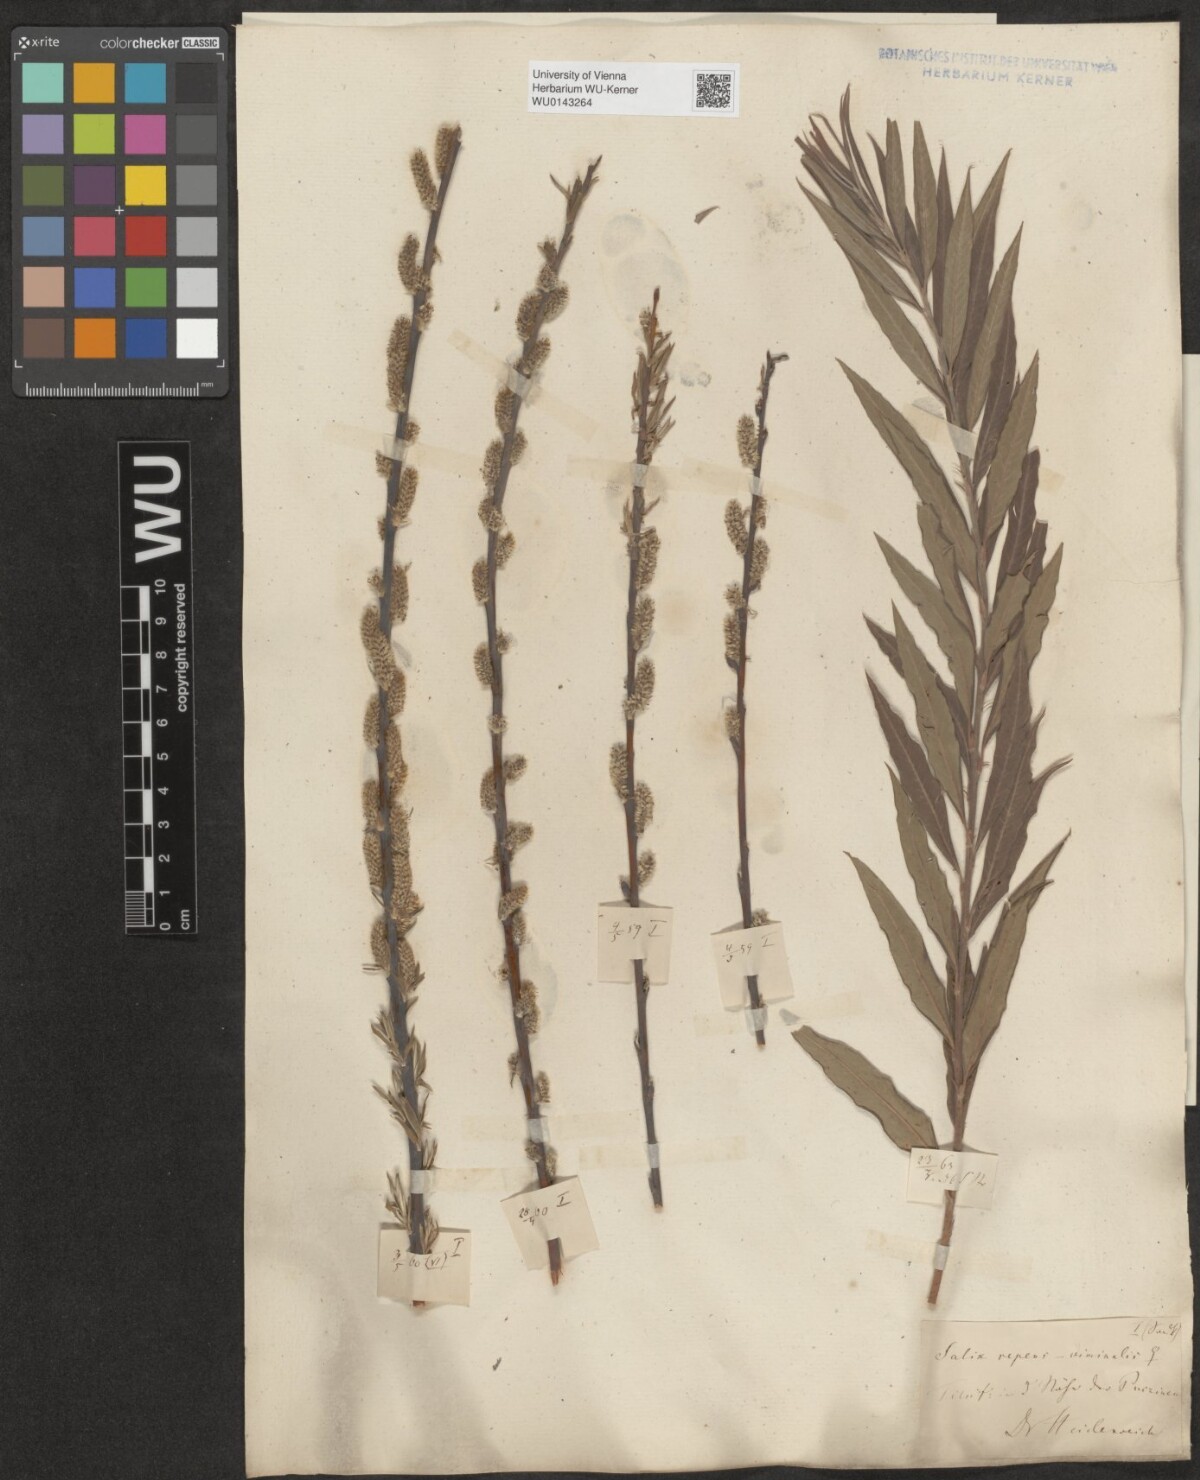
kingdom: Plantae
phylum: Tracheophyta
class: Magnoliopsida
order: Malpighiales
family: Salicaceae
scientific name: Salicaceae
